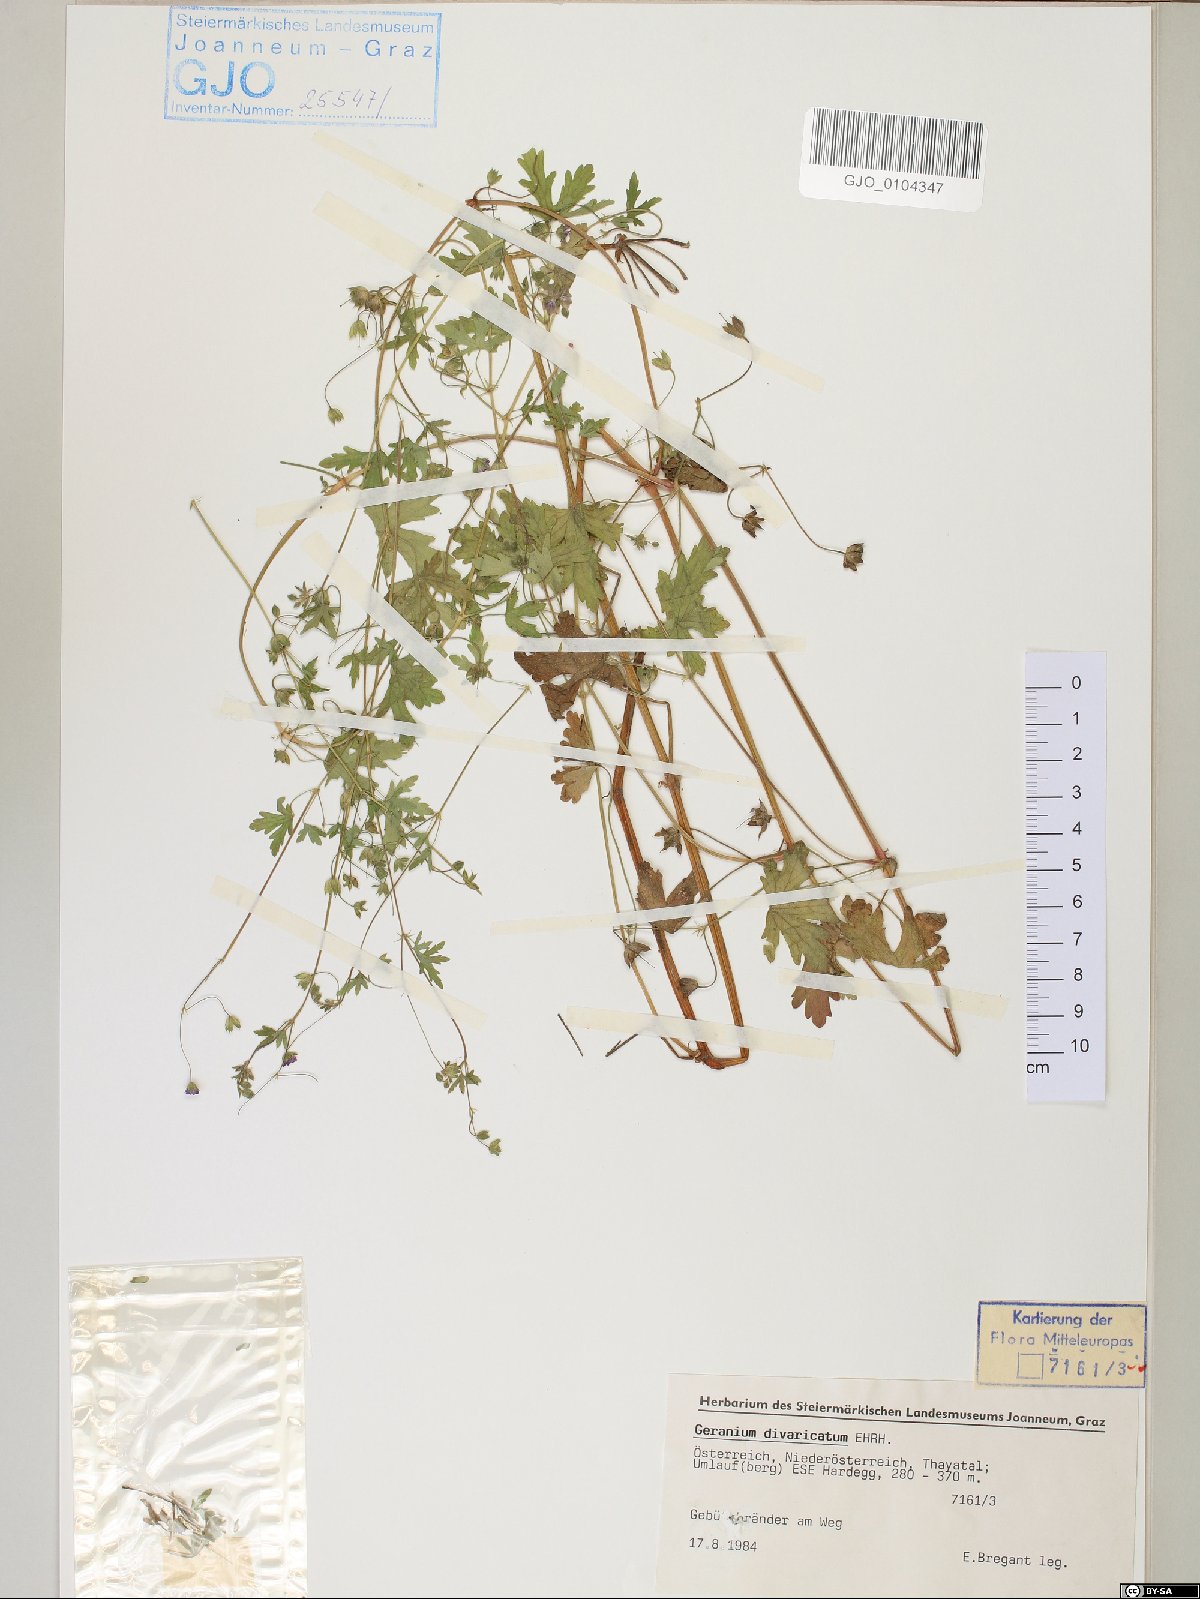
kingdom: Plantae
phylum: Tracheophyta
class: Magnoliopsida
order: Geraniales
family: Geraniaceae
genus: Geranium
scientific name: Geranium divaricatum
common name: Spreading crane's-bill
